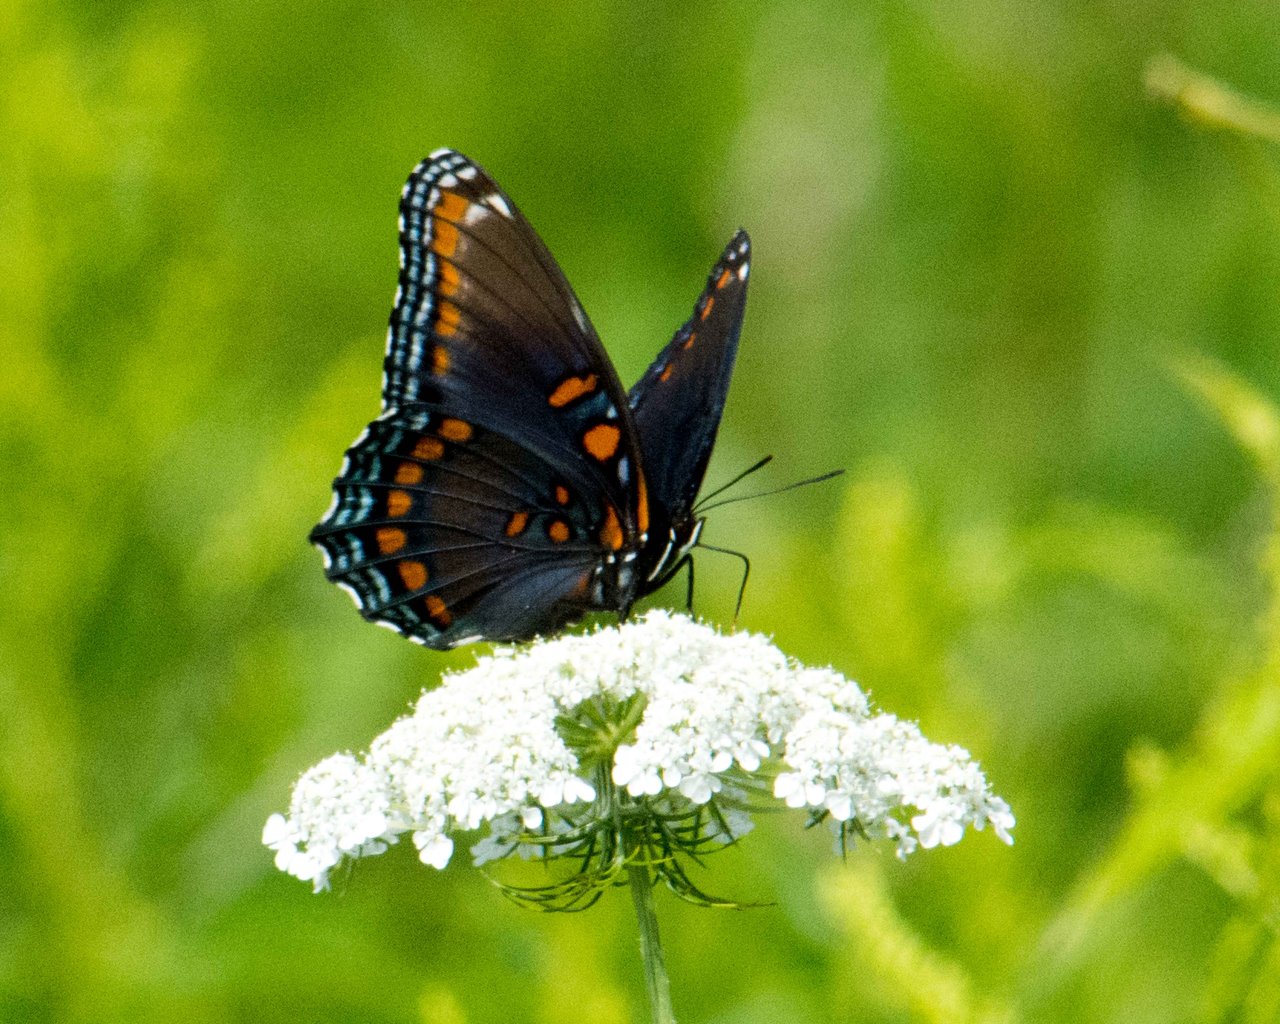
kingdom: Animalia
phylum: Arthropoda
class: Insecta
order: Lepidoptera
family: Nymphalidae
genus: Limenitis
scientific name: Limenitis astyanax
